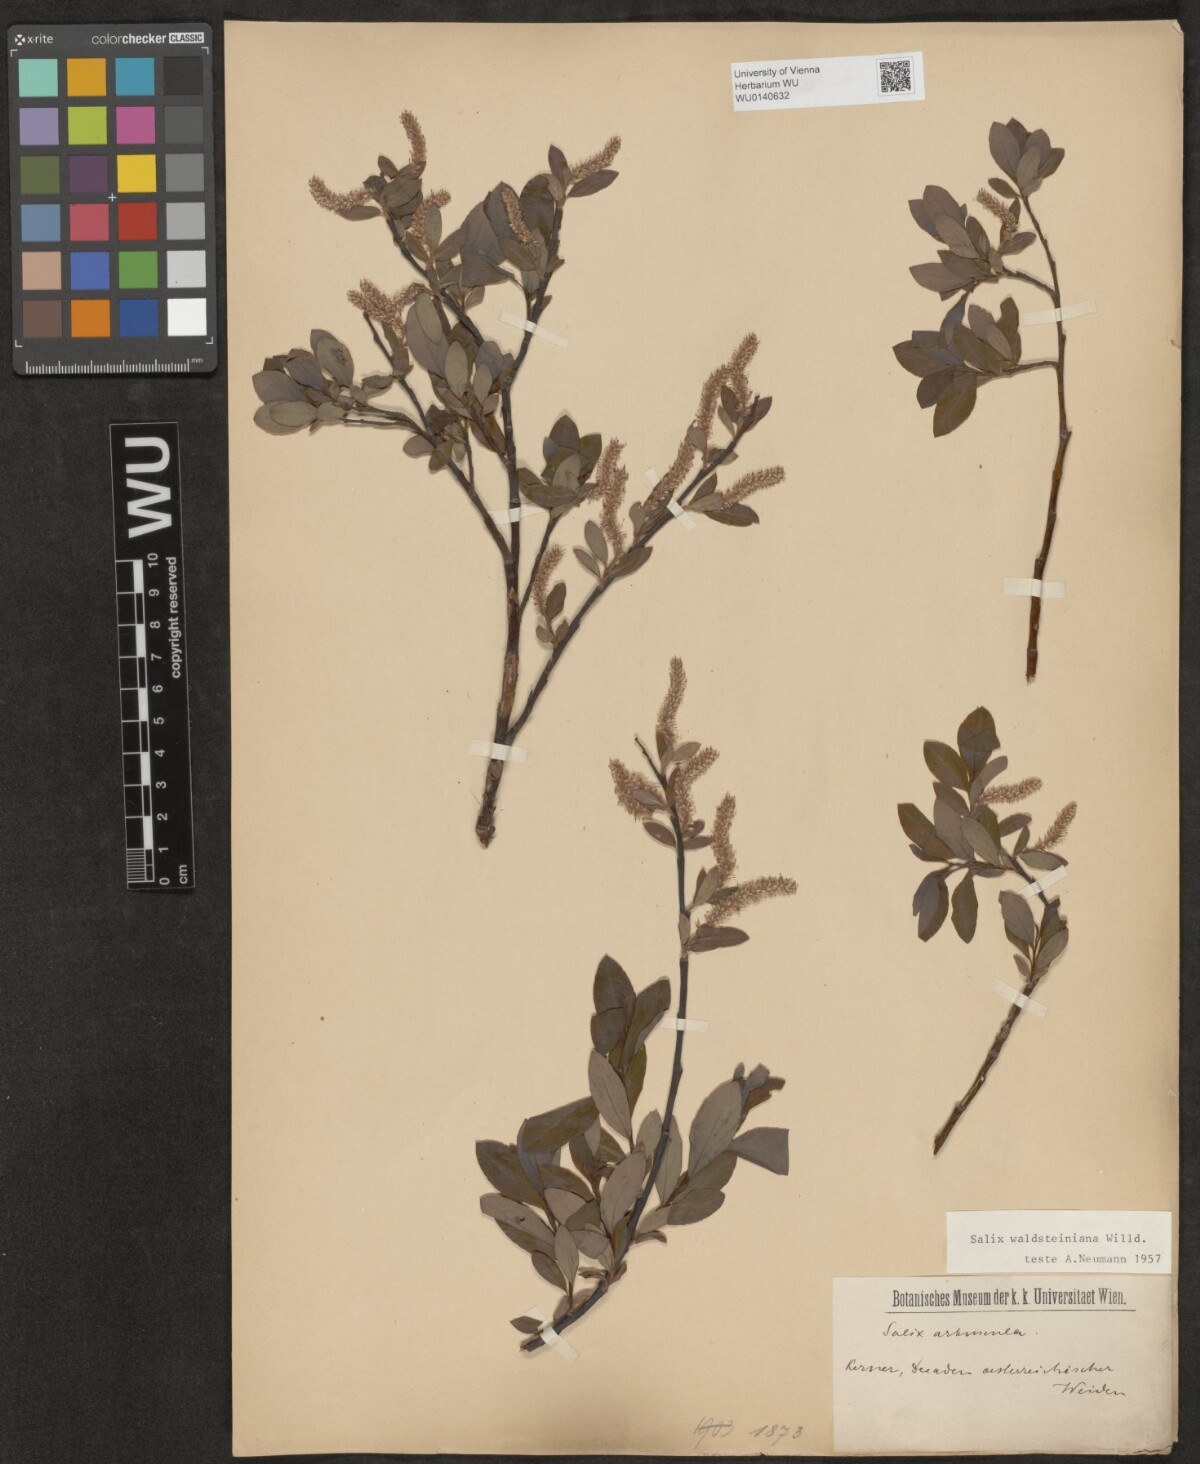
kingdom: Plantae
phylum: Tracheophyta
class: Magnoliopsida
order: Malpighiales
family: Salicaceae
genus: Salix
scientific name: Salix waldsteiniana
